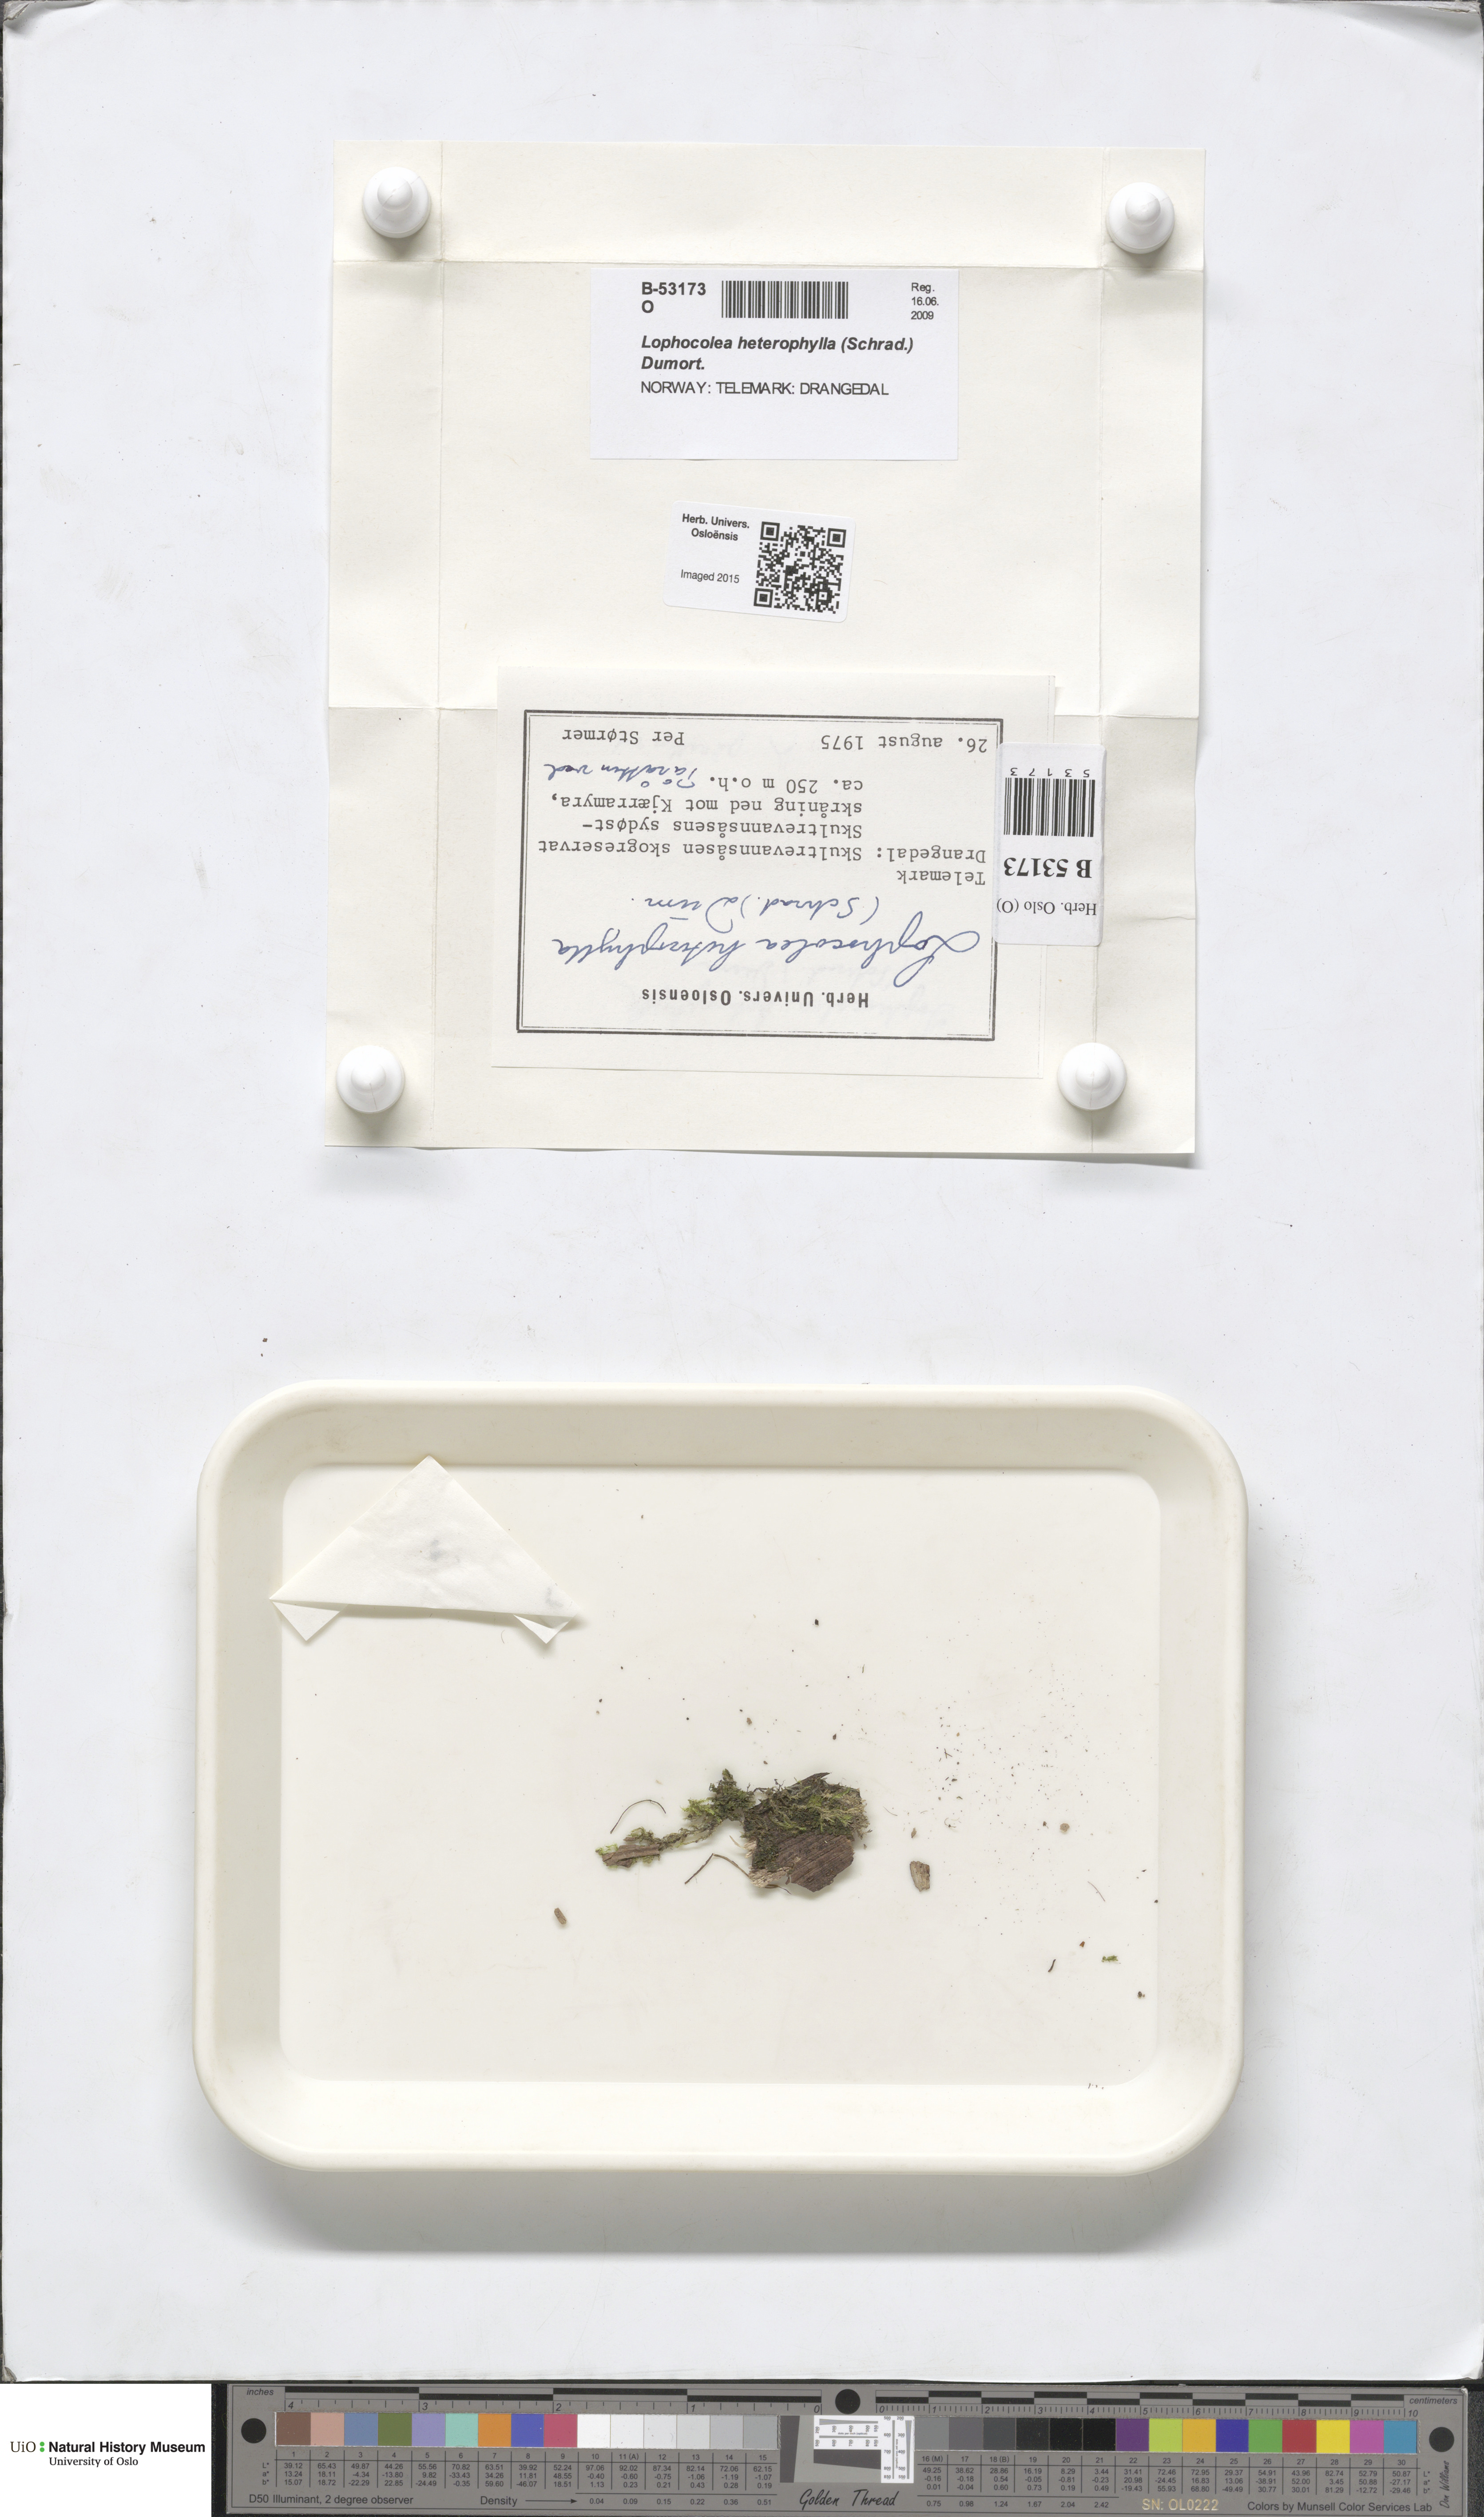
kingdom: Plantae
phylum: Marchantiophyta
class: Jungermanniopsida
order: Jungermanniales
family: Lophocoleaceae
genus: Lophocolea
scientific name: Lophocolea heterophylla
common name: Variable-leaved crestwort
